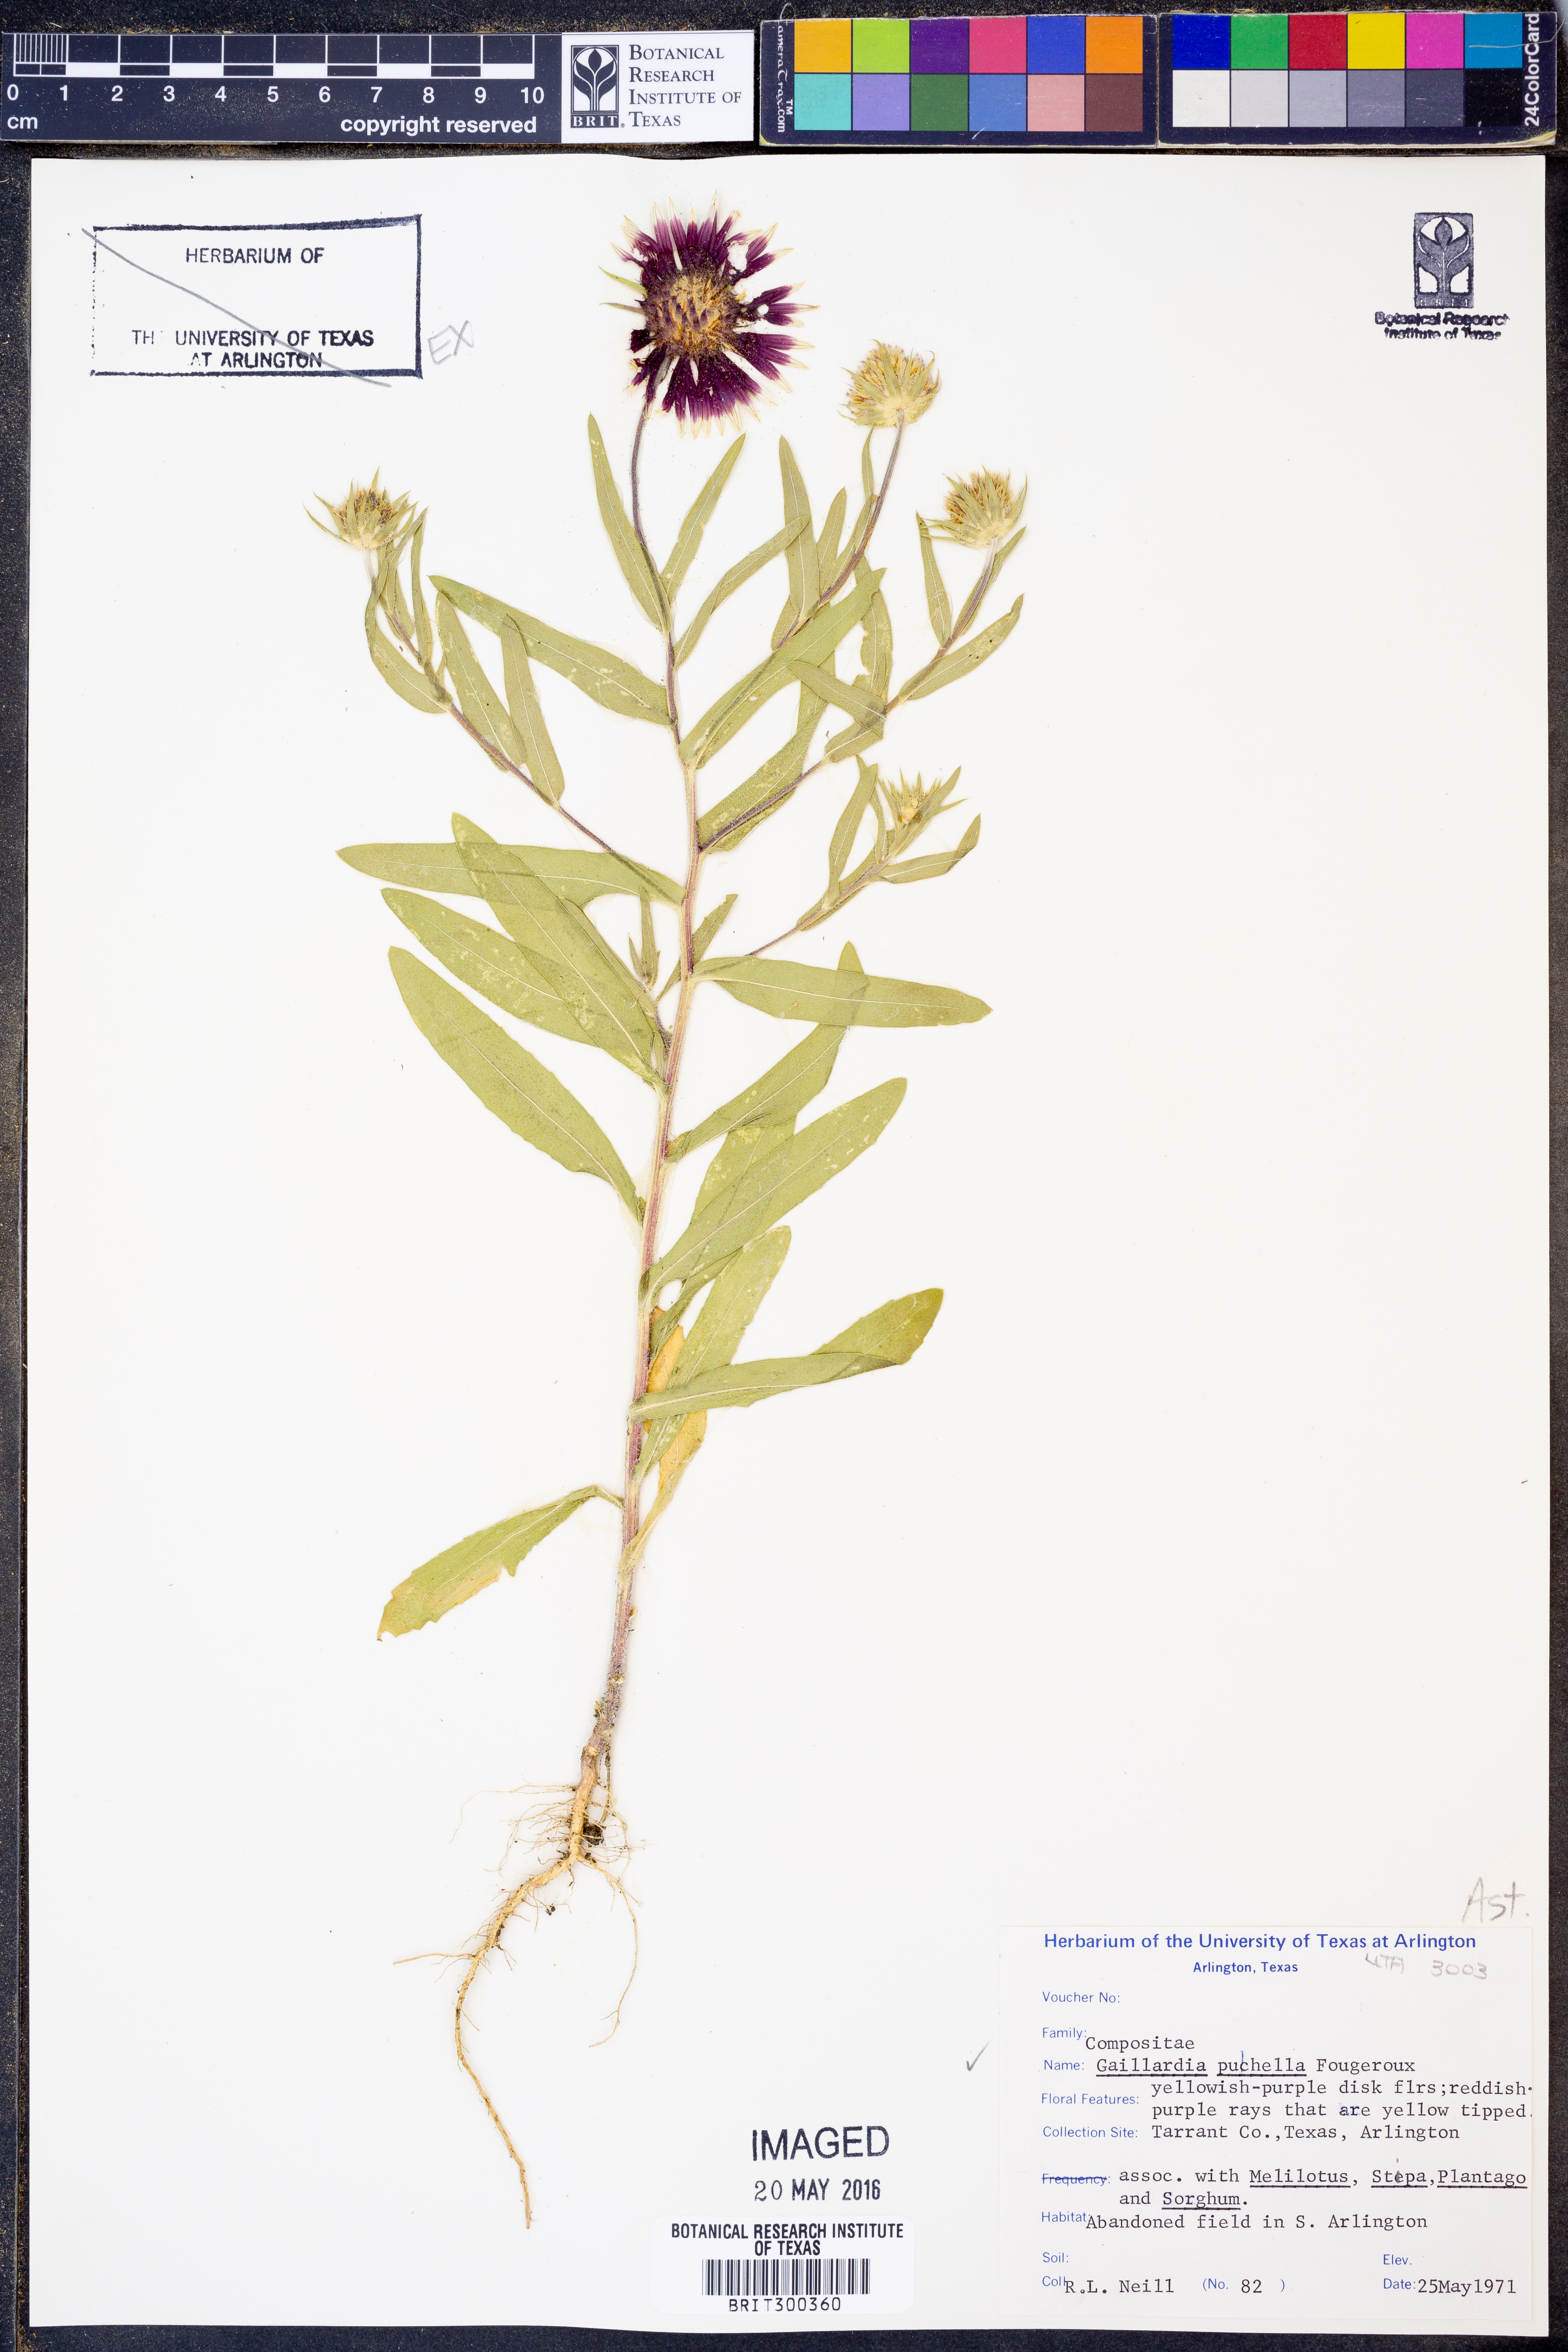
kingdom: Plantae
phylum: Tracheophyta
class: Magnoliopsida
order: Asterales
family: Asteraceae
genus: Gaillardia
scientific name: Gaillardia pulchella
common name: Firewheel
